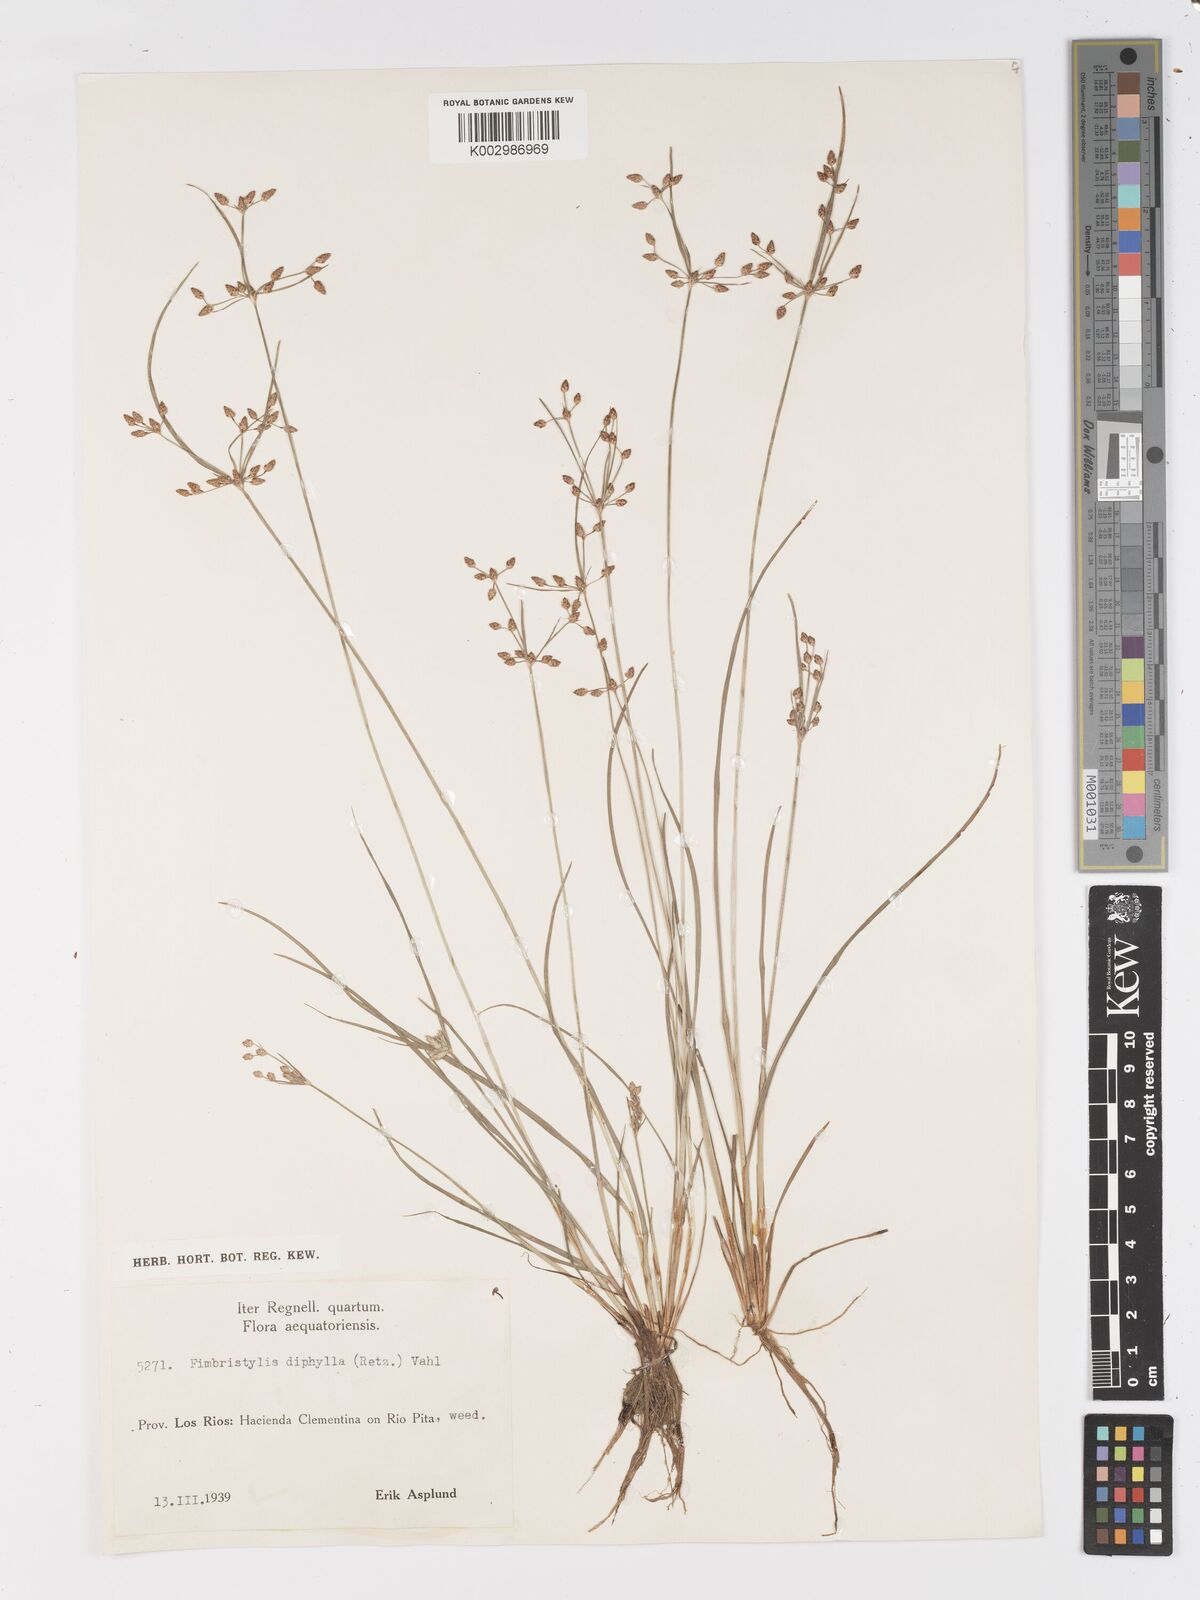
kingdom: Plantae
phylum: Tracheophyta
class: Liliopsida
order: Poales
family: Cyperaceae
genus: Fimbristylis
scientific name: Fimbristylis dichotoma
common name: Forked fimbry
